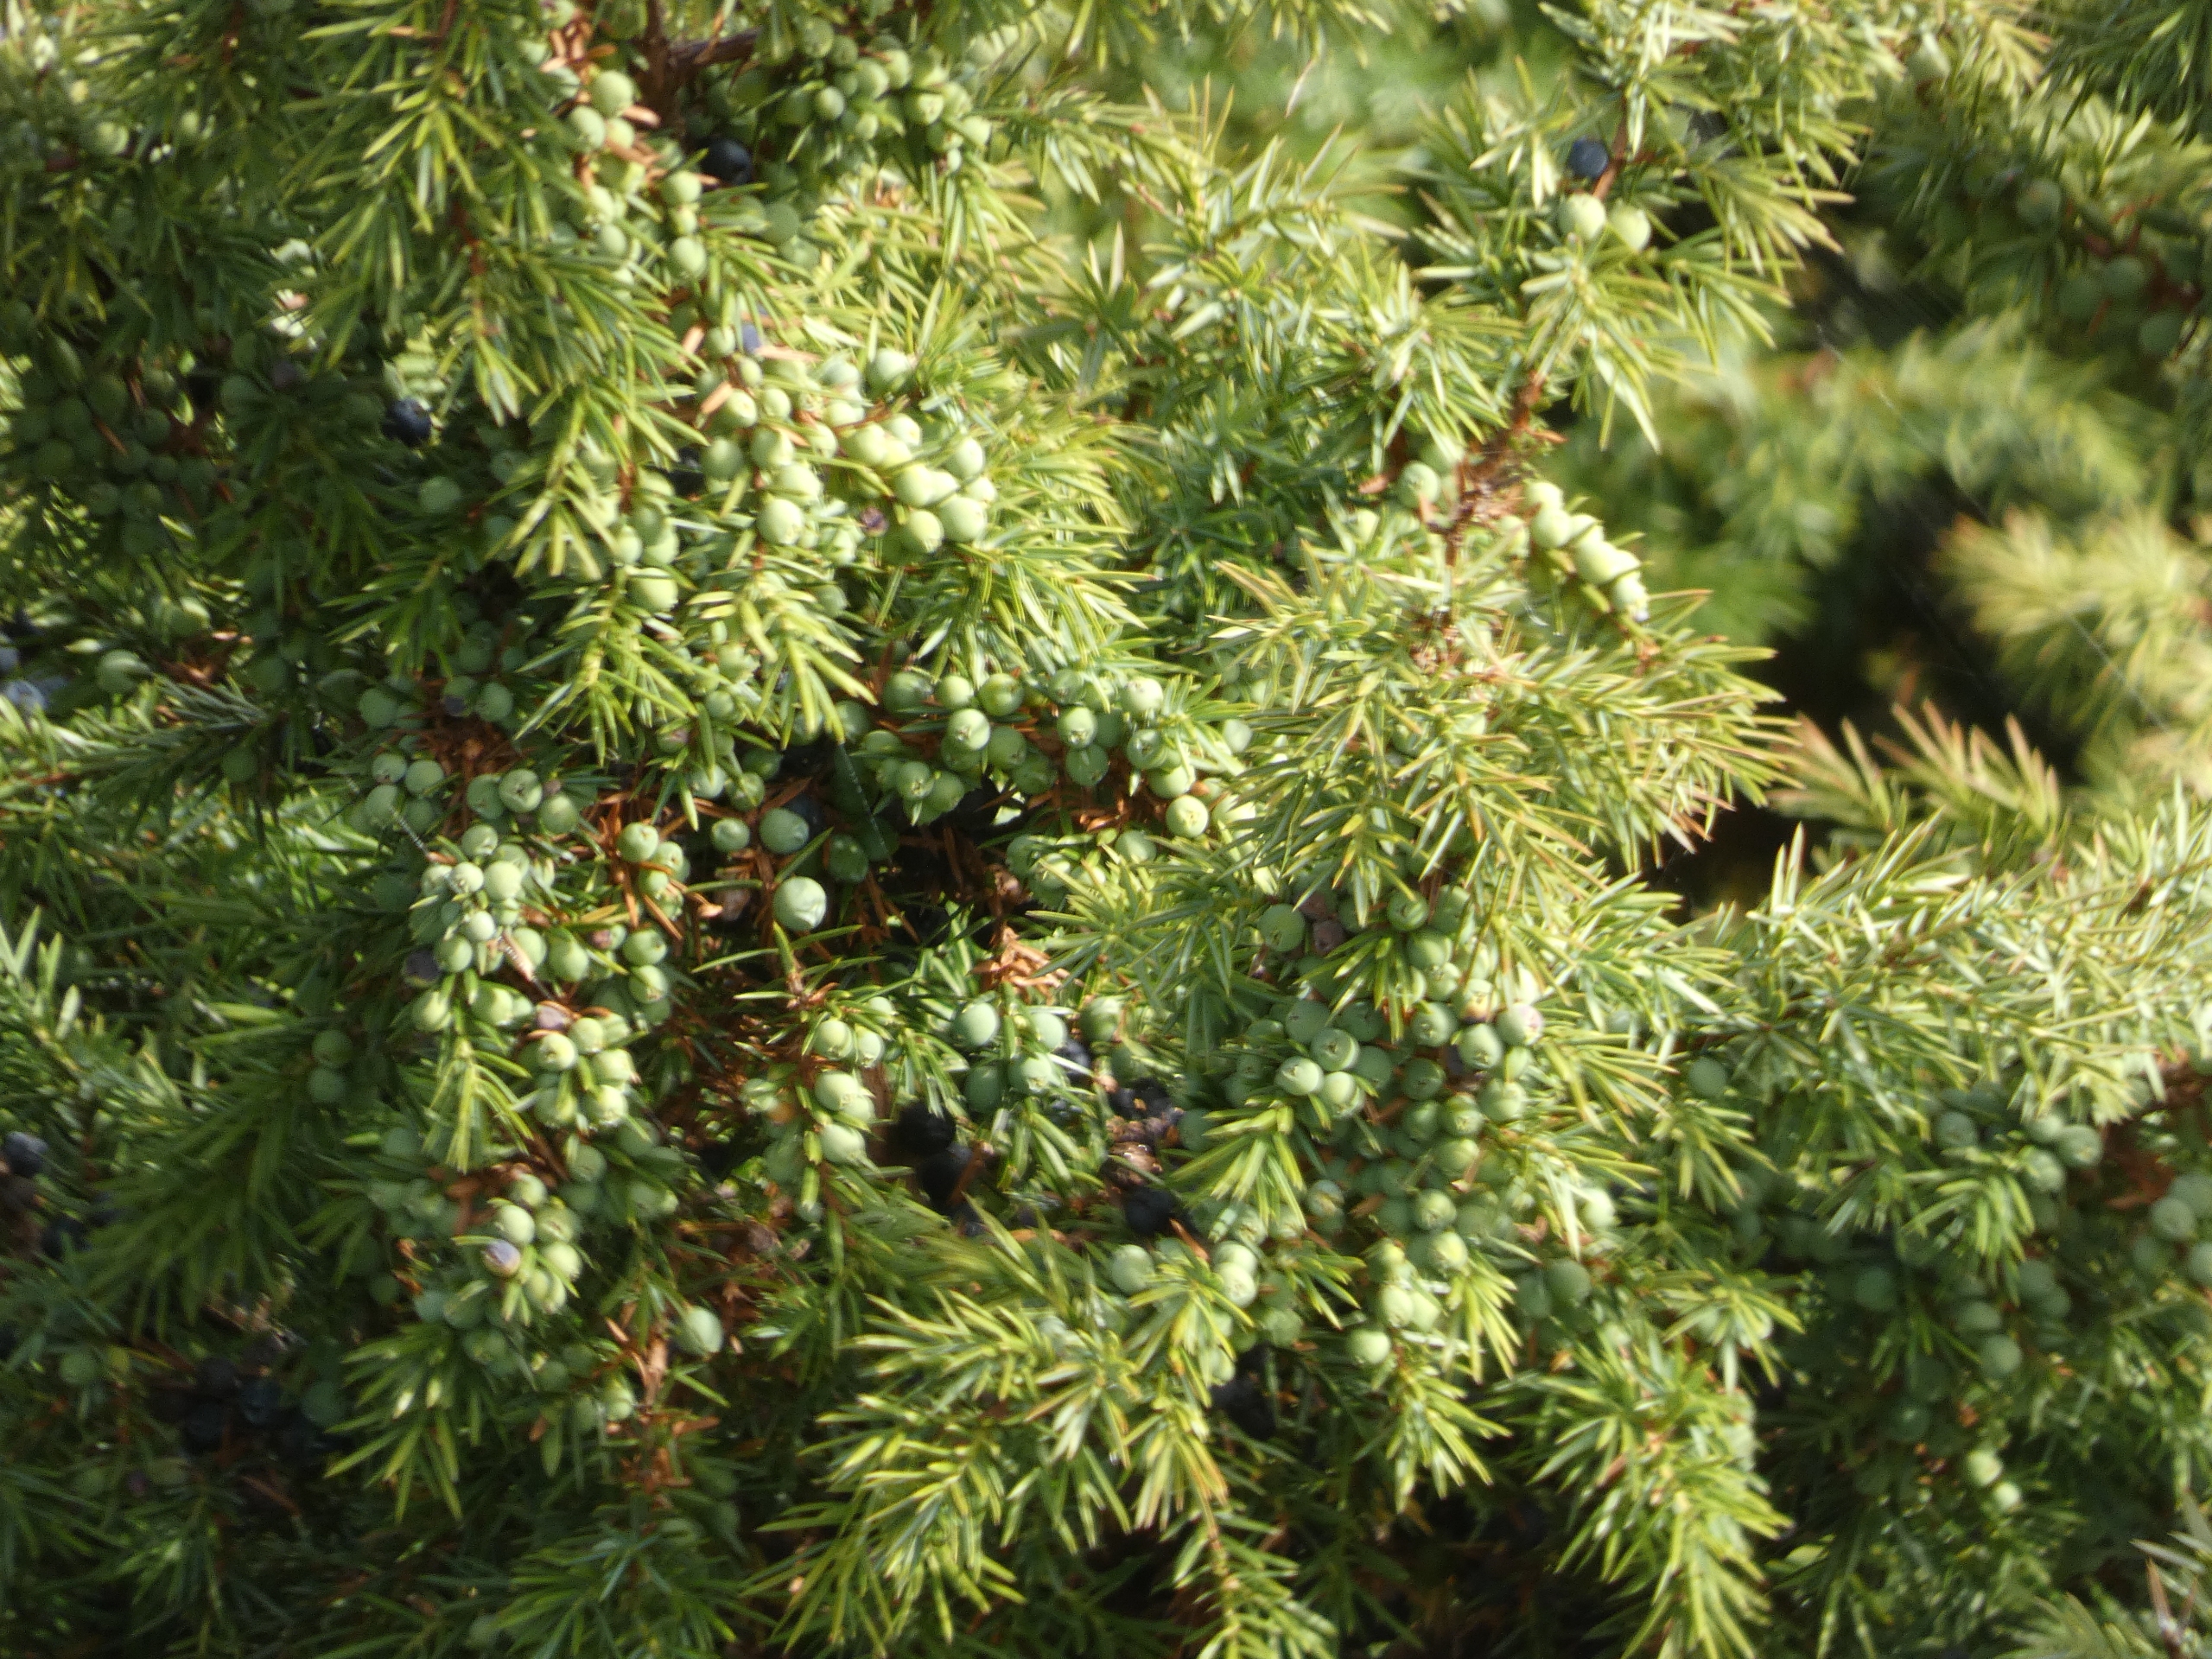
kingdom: Plantae
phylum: Tracheophyta
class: Pinopsida
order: Pinales
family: Cupressaceae
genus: Juniperus
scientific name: Juniperus communis
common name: Almindelig ene
